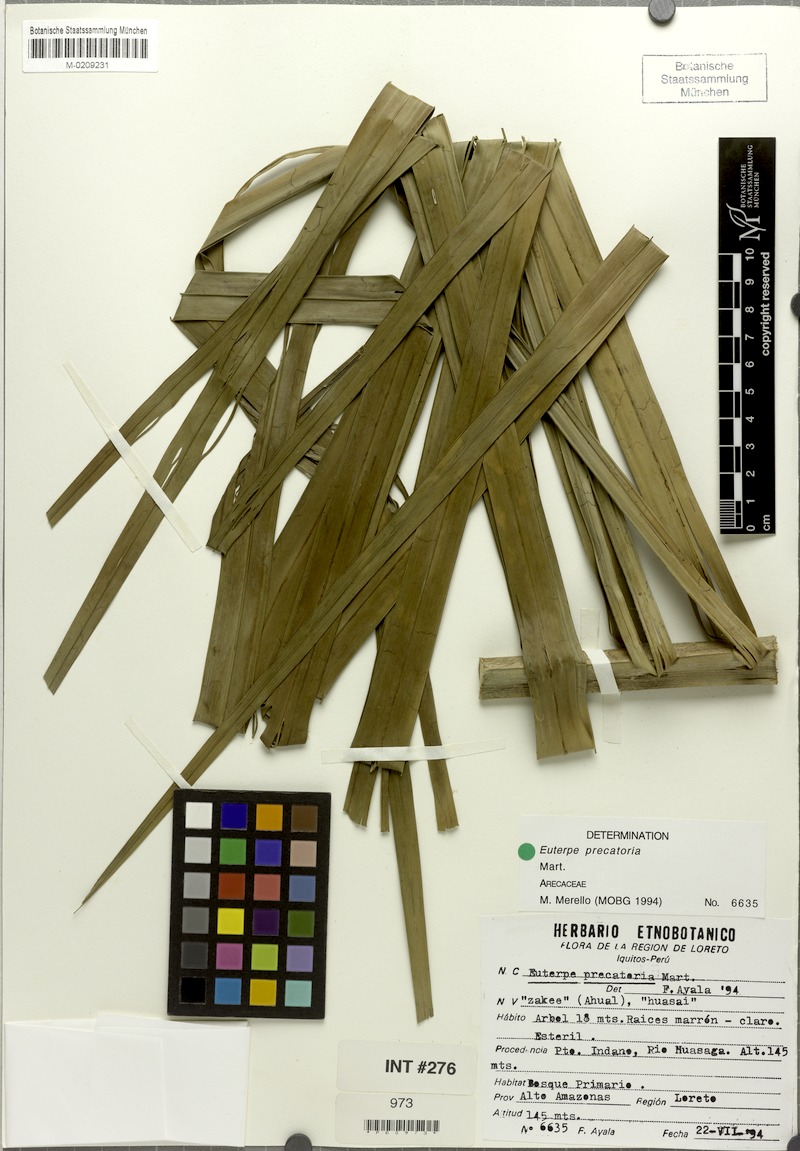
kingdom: Plantae
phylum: Tracheophyta
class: Liliopsida
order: Arecales
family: Arecaceae
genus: Euterpe
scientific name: Euterpe precatoria
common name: Mountain-cabbage
